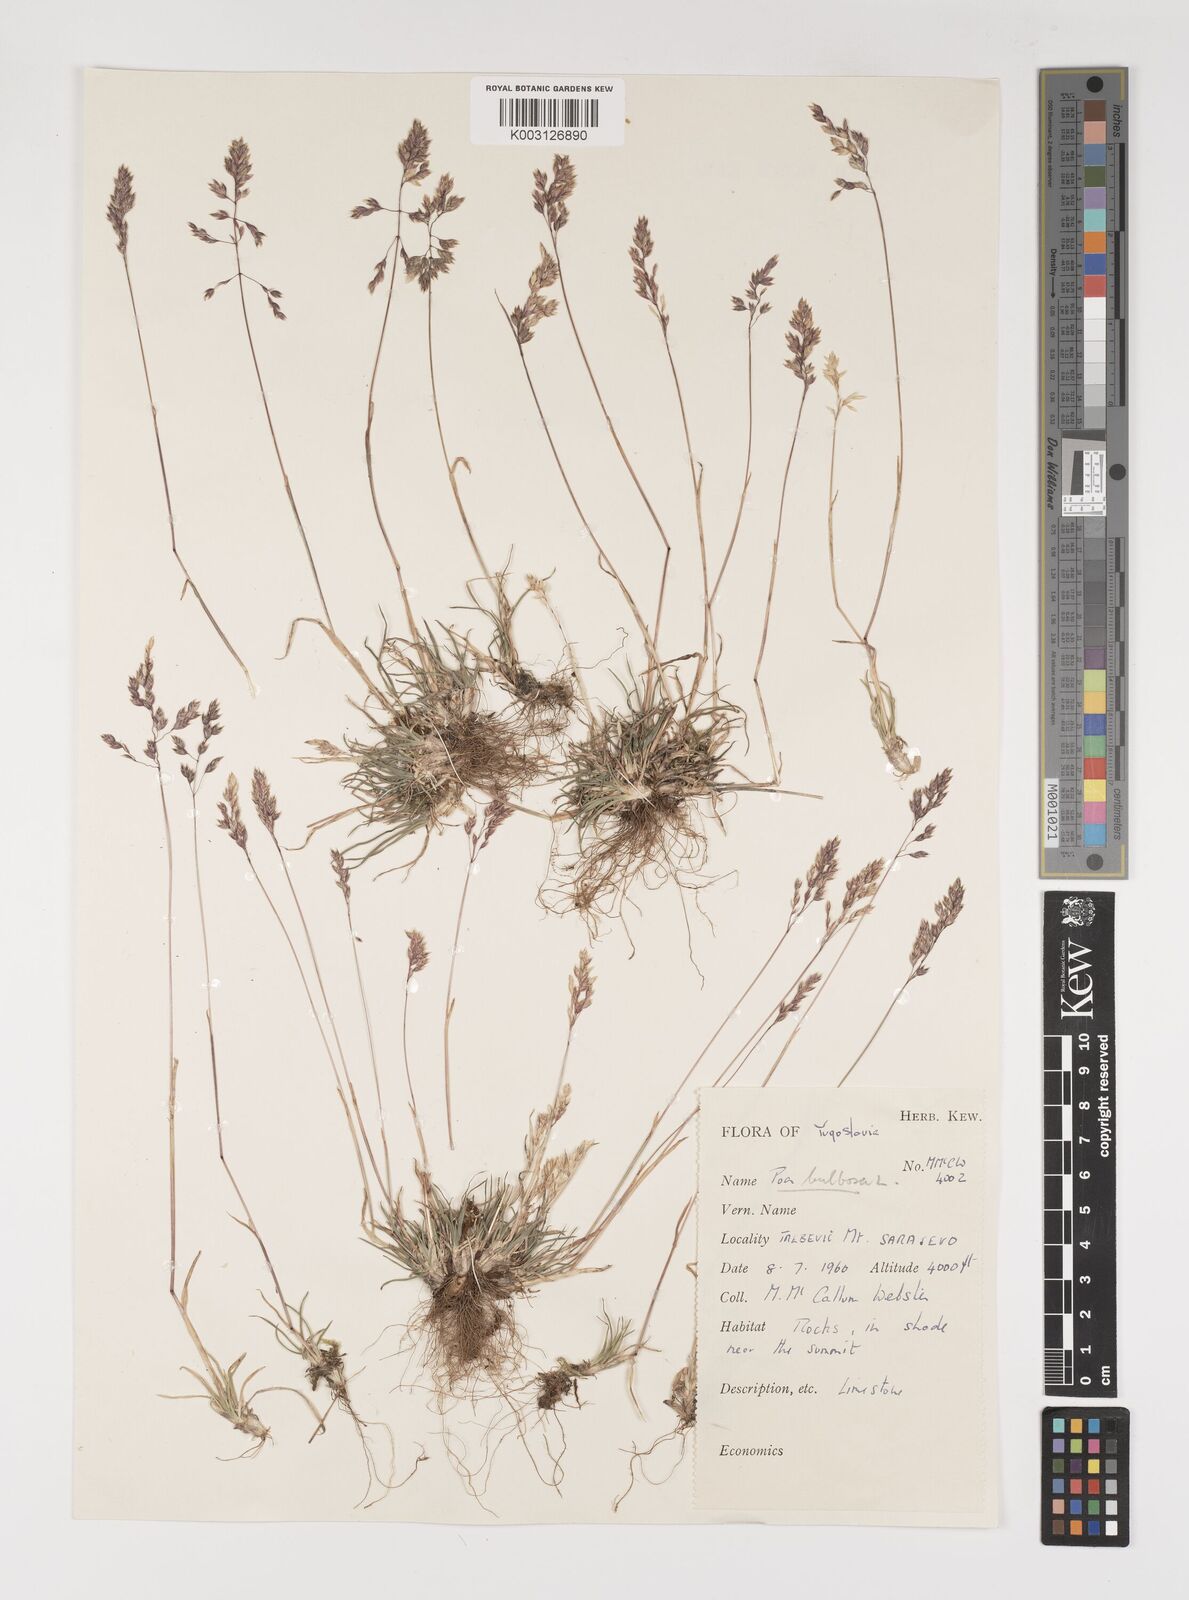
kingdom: Plantae
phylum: Tracheophyta
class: Liliopsida
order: Poales
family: Poaceae
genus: Poa
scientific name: Poa bulbosa
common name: Bulbous bluegrass
